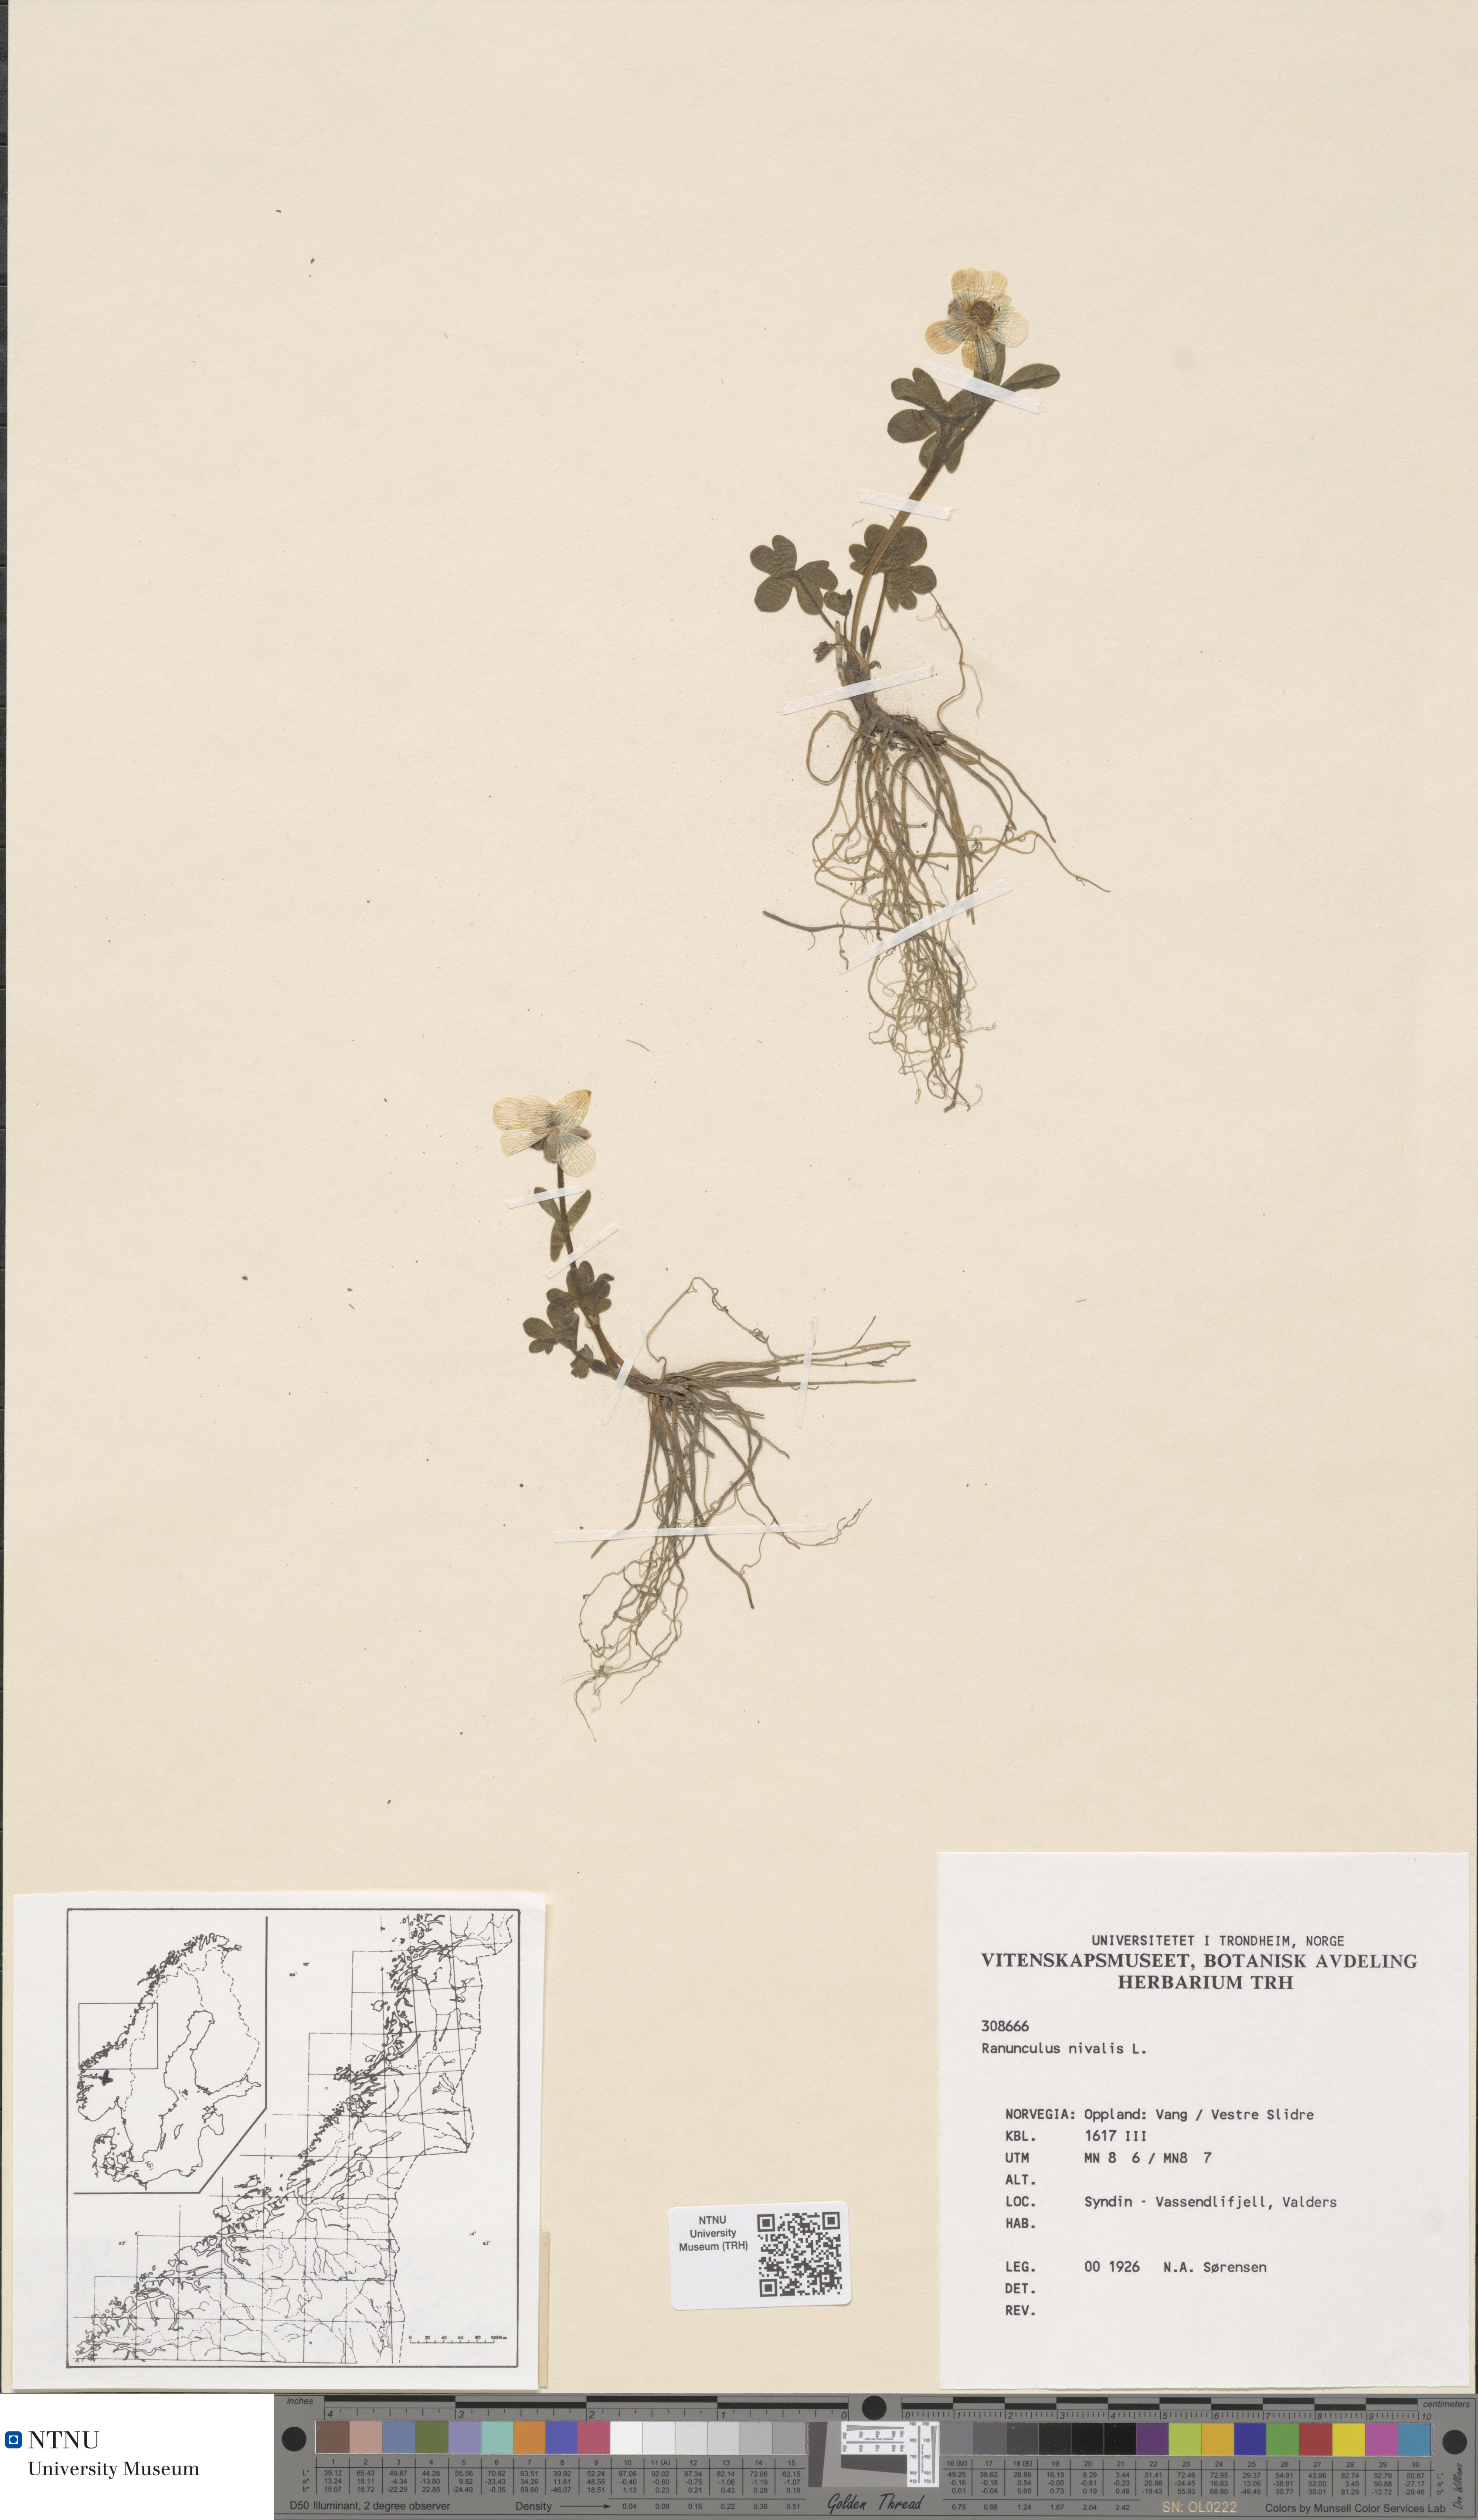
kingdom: Plantae
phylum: Tracheophyta
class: Magnoliopsida
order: Ranunculales
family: Ranunculaceae
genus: Ranunculus
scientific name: Ranunculus nivalis
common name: Snow buttercup
